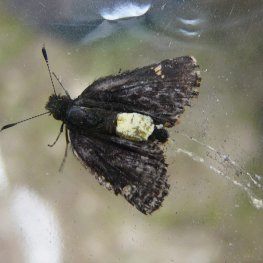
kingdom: Animalia
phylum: Arthropoda
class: Insecta
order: Lepidoptera
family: Hesperiidae
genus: Mastor
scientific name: Mastor vialis
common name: Common Roadside-Skipper
